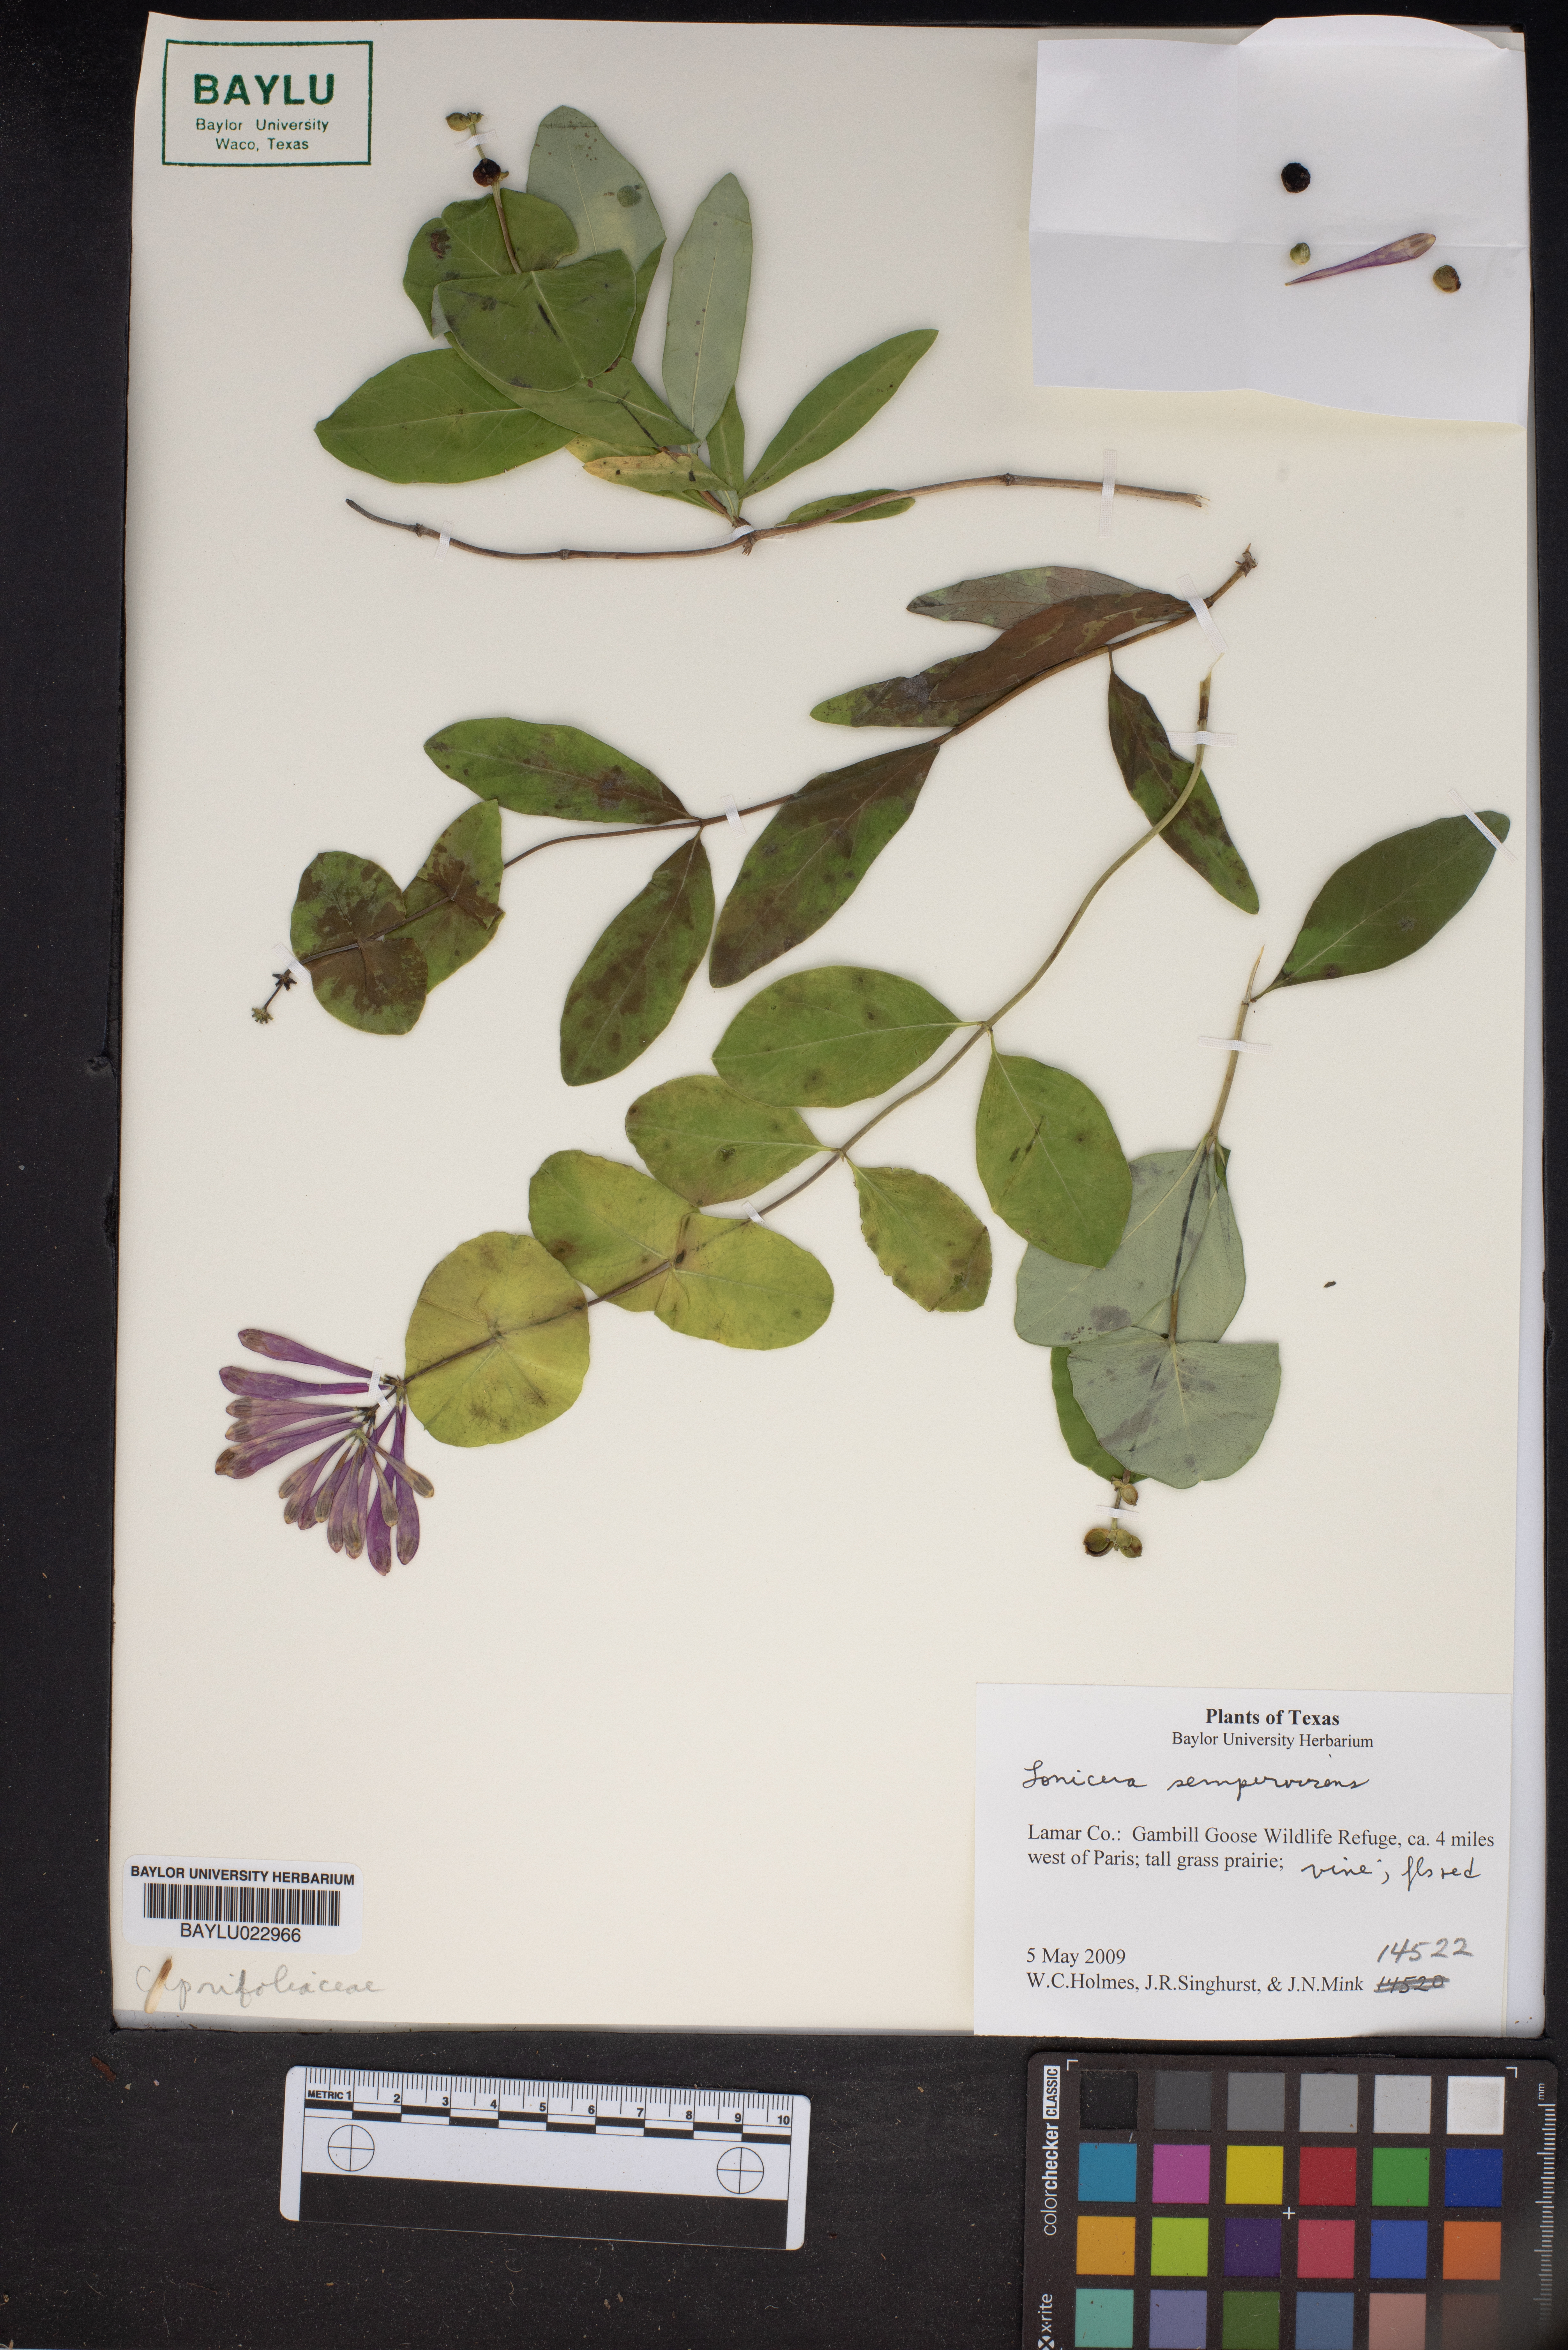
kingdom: Plantae
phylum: Tracheophyta
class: Magnoliopsida
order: Dipsacales
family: Caprifoliaceae
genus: Lonicera
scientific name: Lonicera sempervirens
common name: Coral honeysuckle
